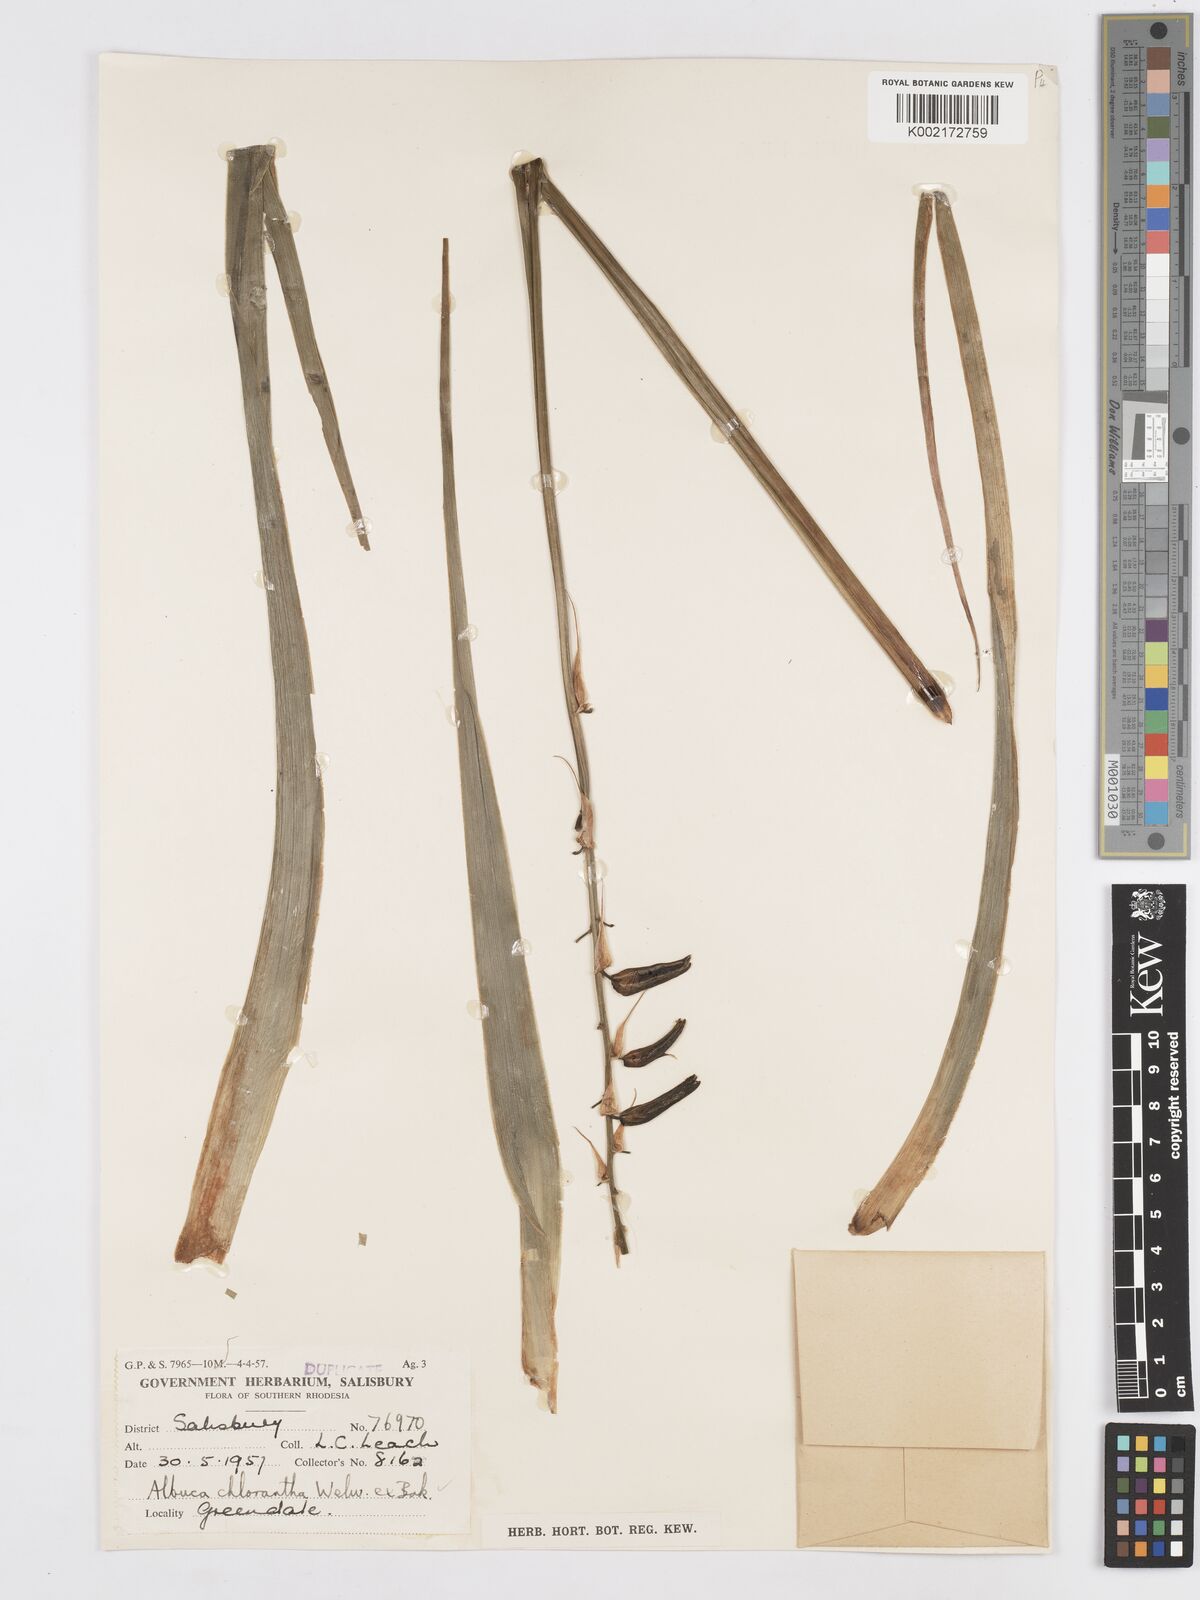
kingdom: Plantae
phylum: Tracheophyta
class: Liliopsida
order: Asparagales
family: Asparagaceae
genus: Albuca
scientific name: Albuca abyssinica
